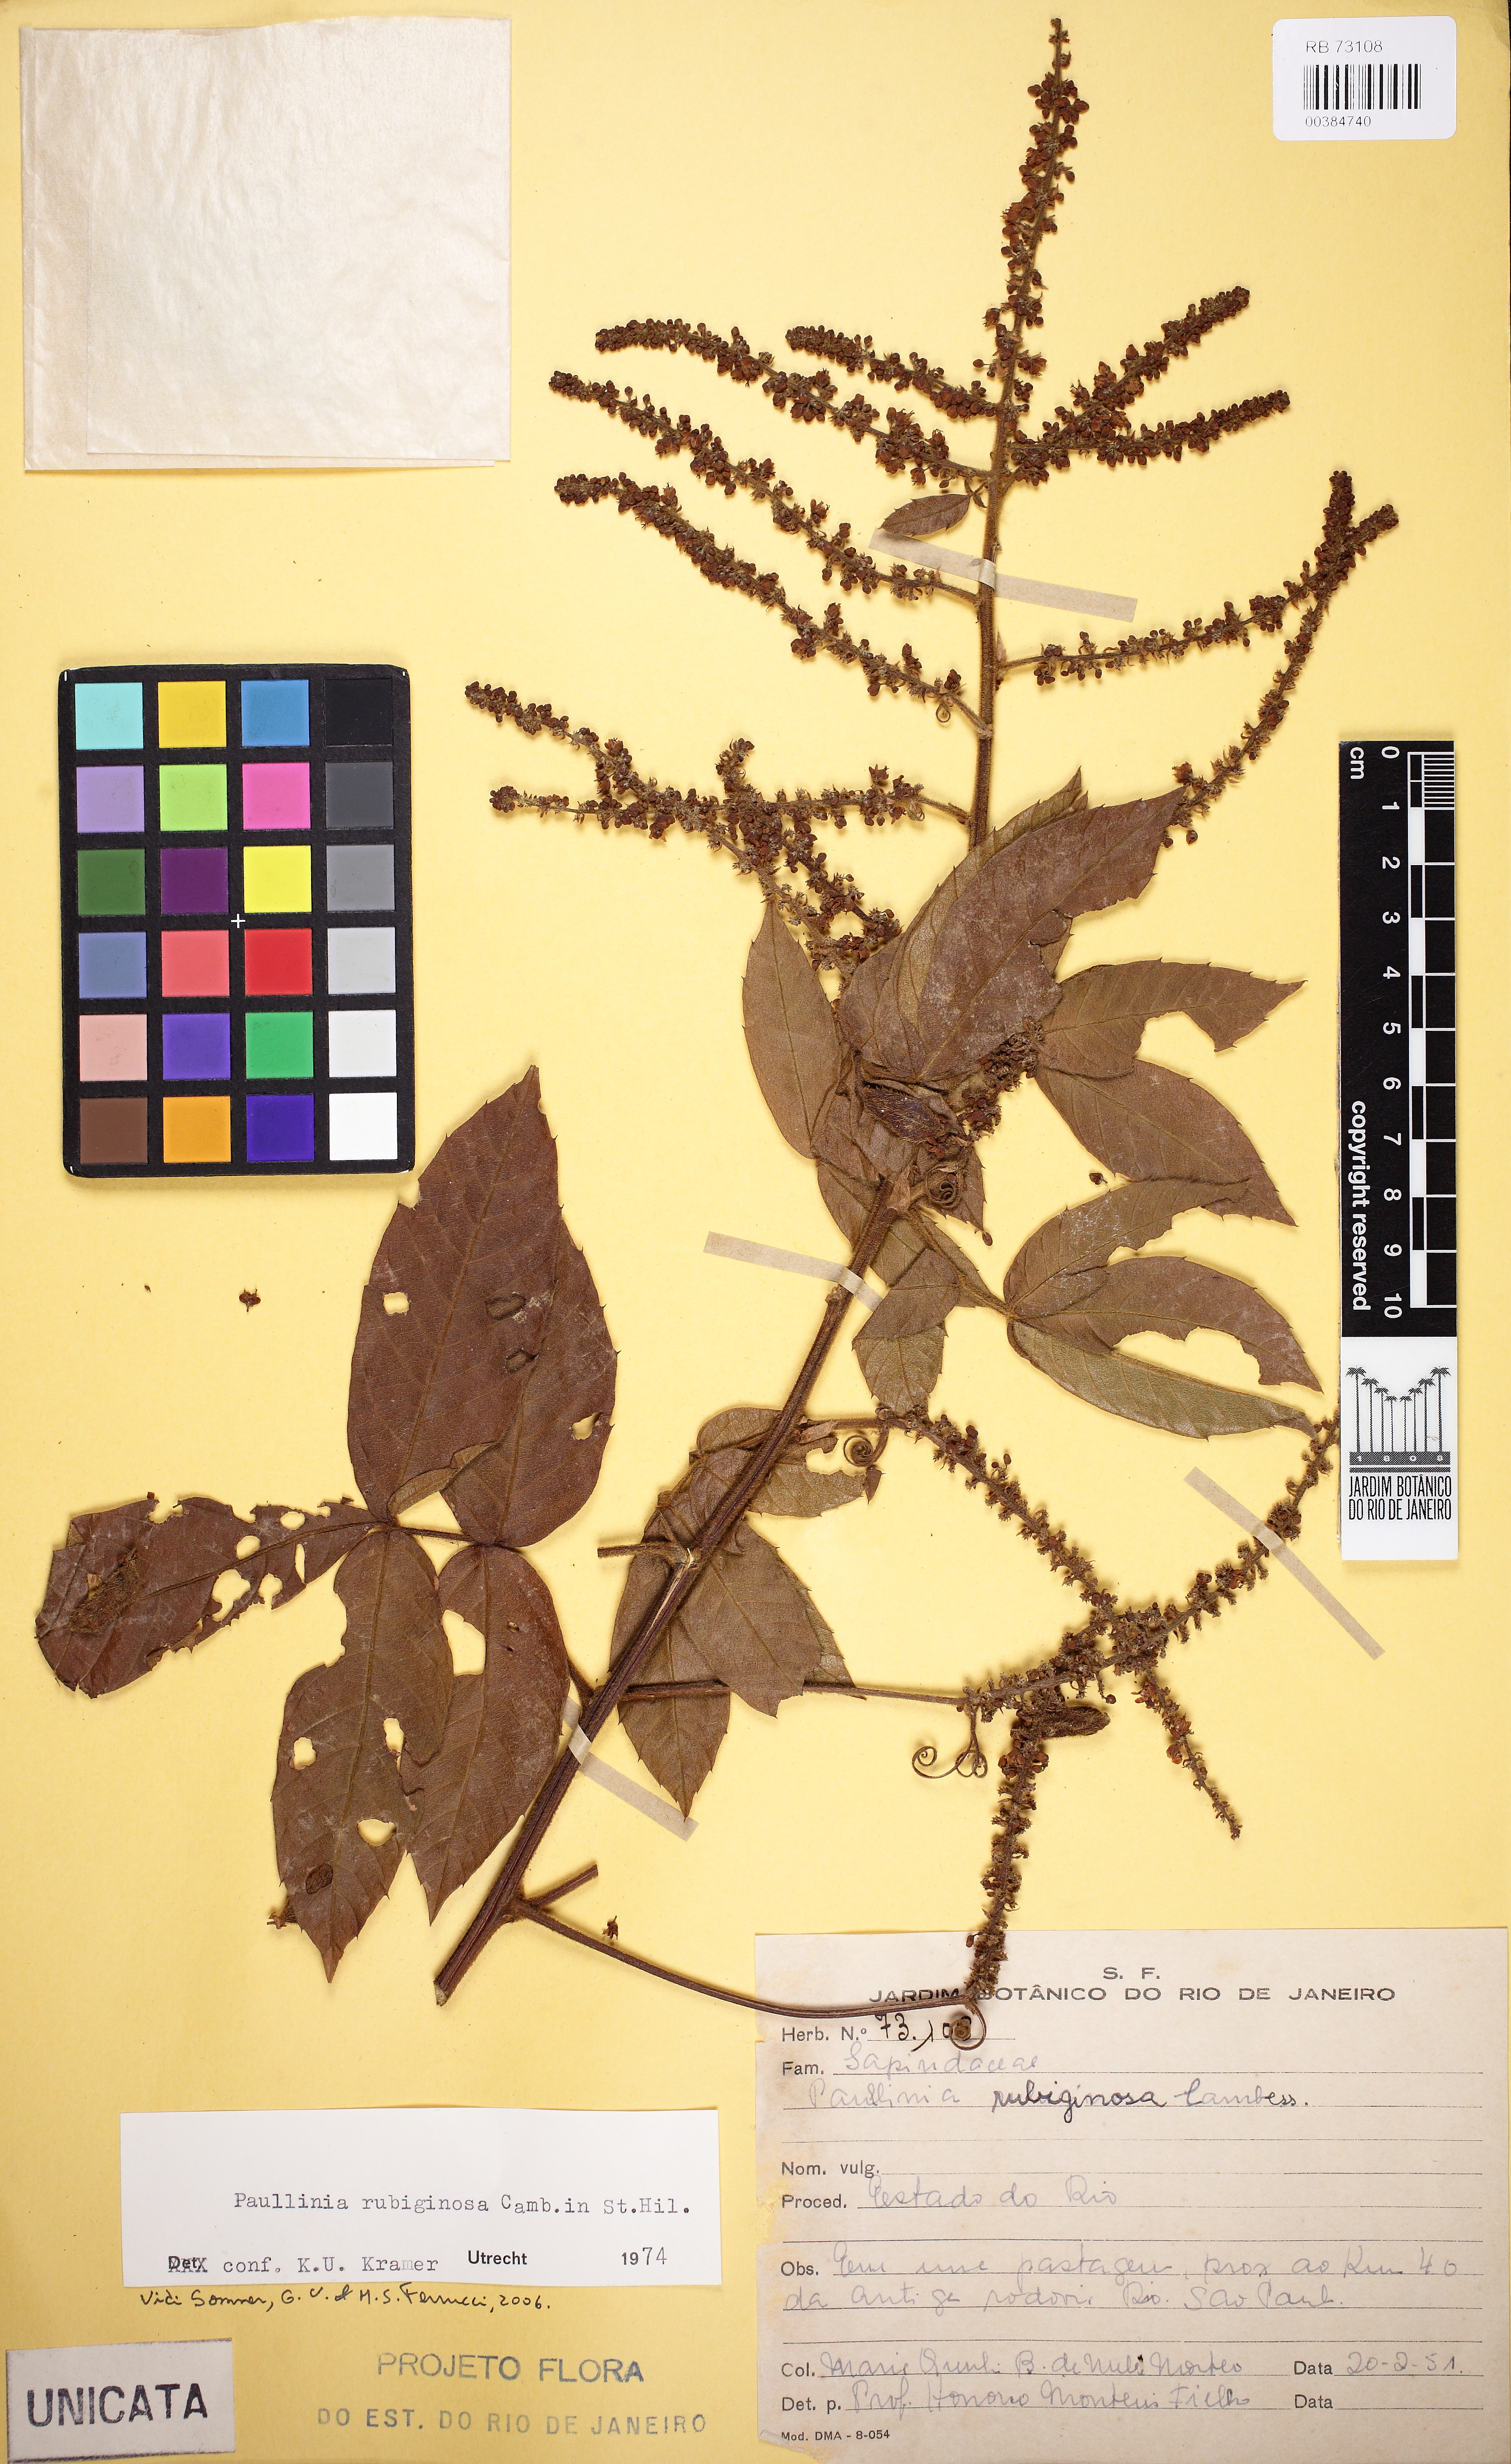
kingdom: Plantae
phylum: Tracheophyta
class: Magnoliopsida
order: Sapindales
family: Sapindaceae
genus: Paullinia
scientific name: Paullinia rubiginosa
